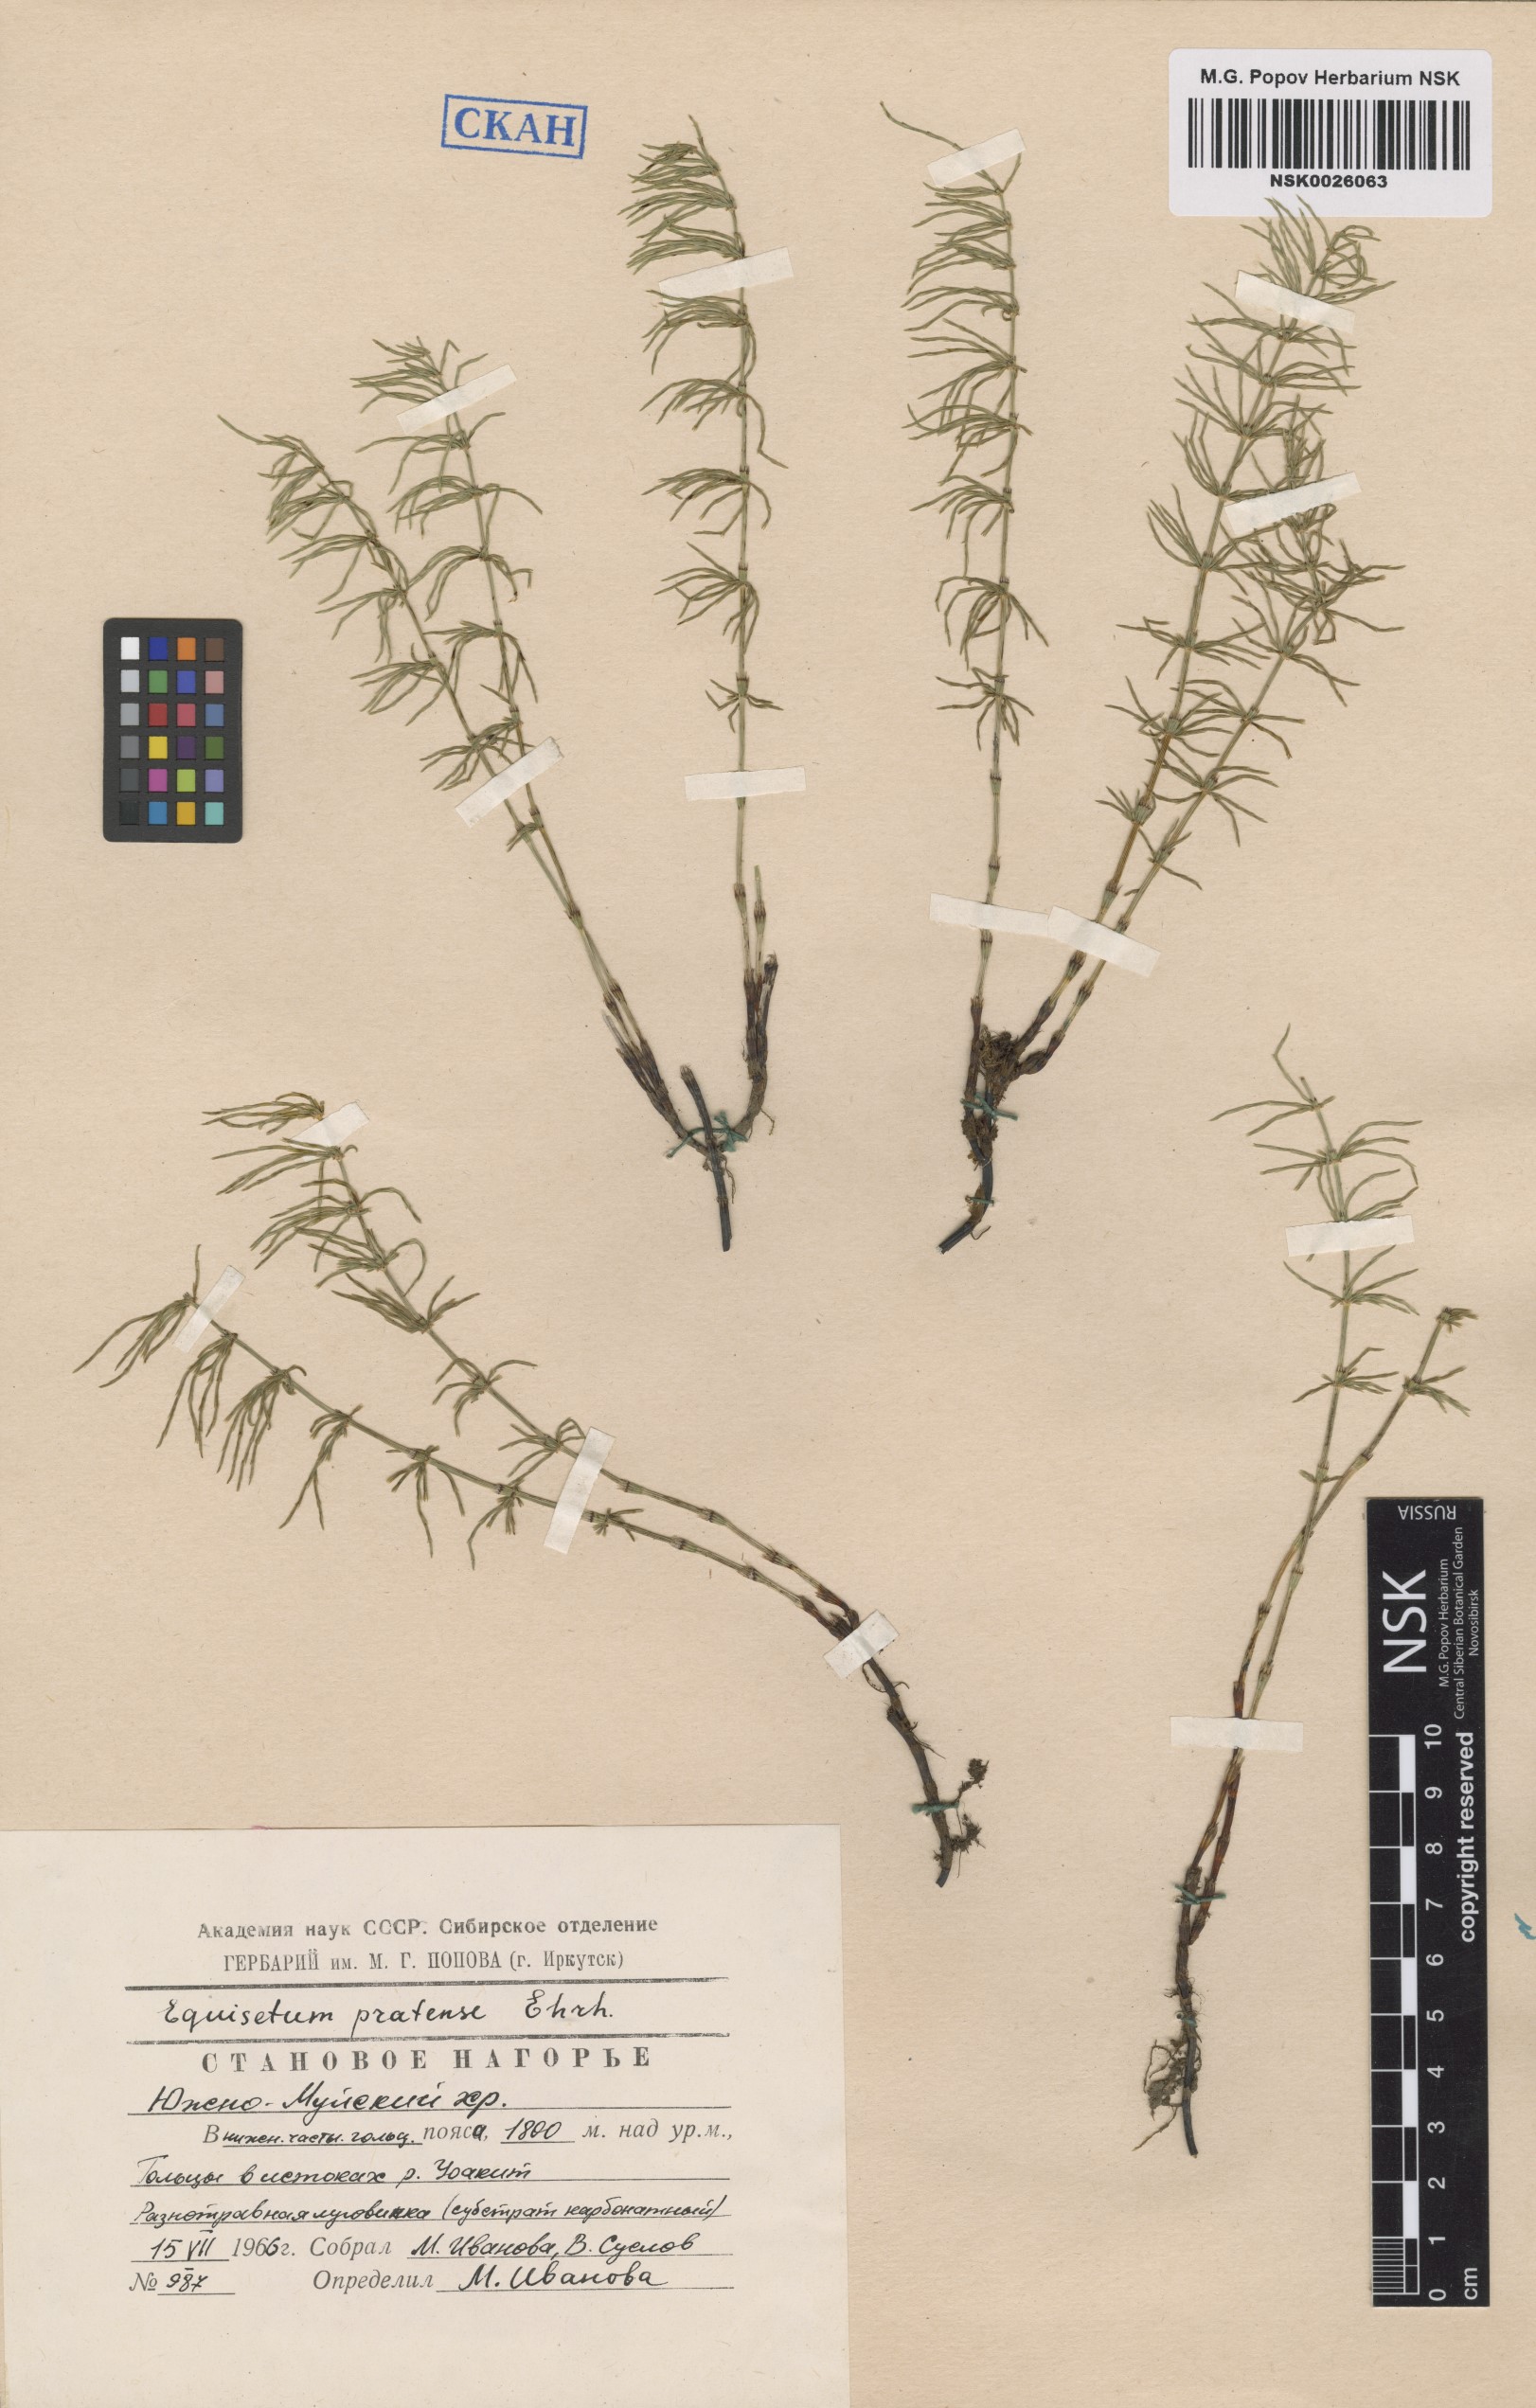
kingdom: Plantae
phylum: Tracheophyta
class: Polypodiopsida
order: Equisetales
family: Equisetaceae
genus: Equisetum
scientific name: Equisetum pratense
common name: Meadow horsetail
